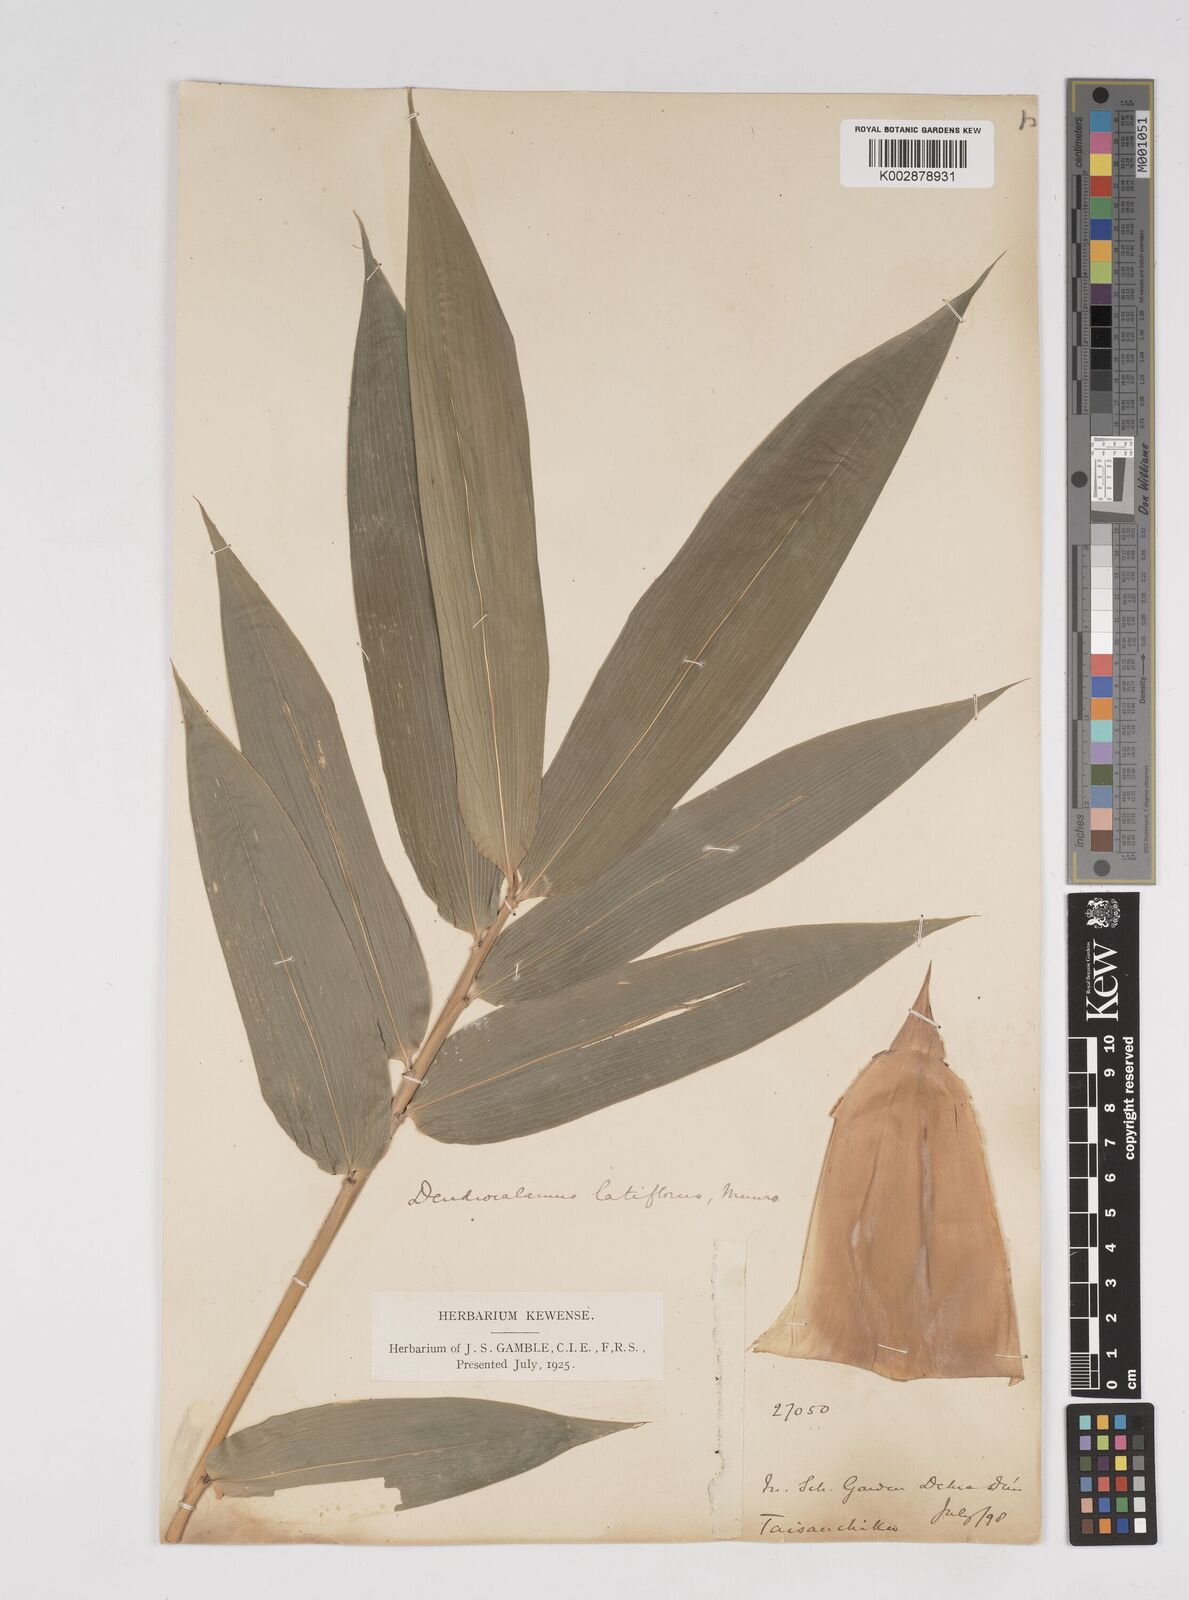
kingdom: Plantae
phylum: Tracheophyta
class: Liliopsida
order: Poales
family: Poaceae
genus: Dendrocalamus
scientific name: Dendrocalamus latiflorus
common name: Giant bamboo
